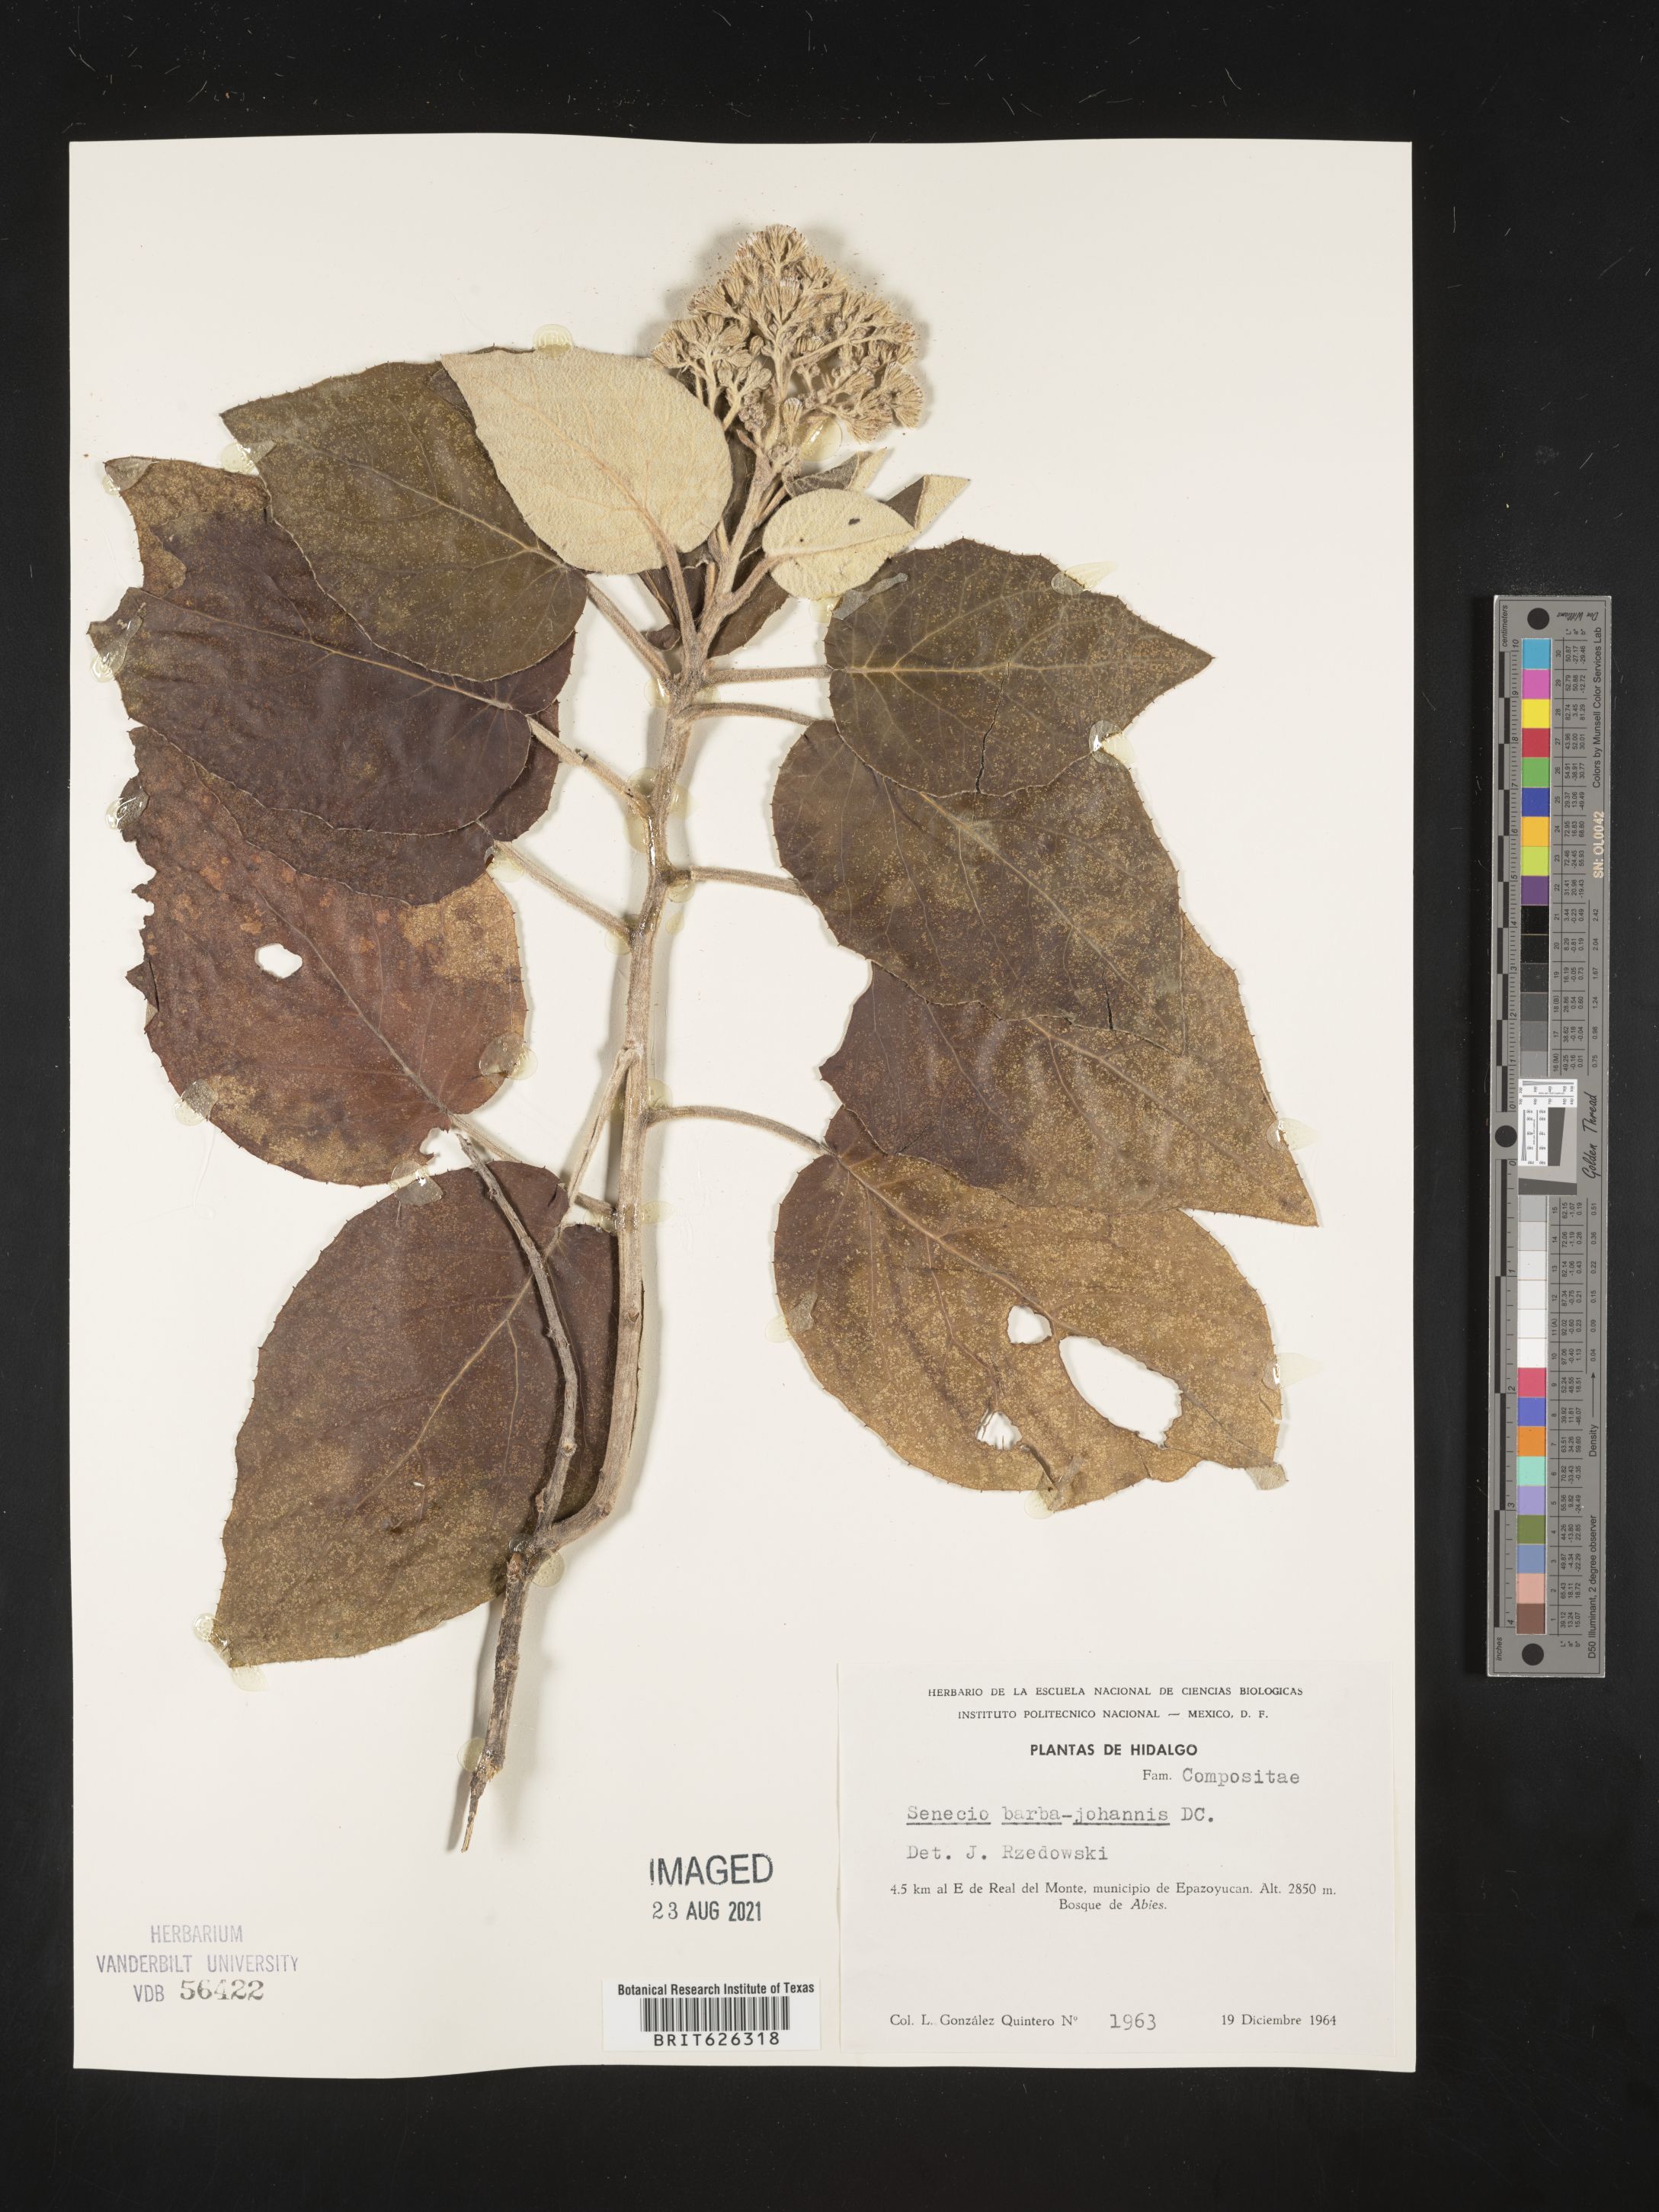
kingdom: Plantae
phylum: Tracheophyta
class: Magnoliopsida
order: Asterales
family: Asteraceae
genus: Senecio
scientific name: Senecio
